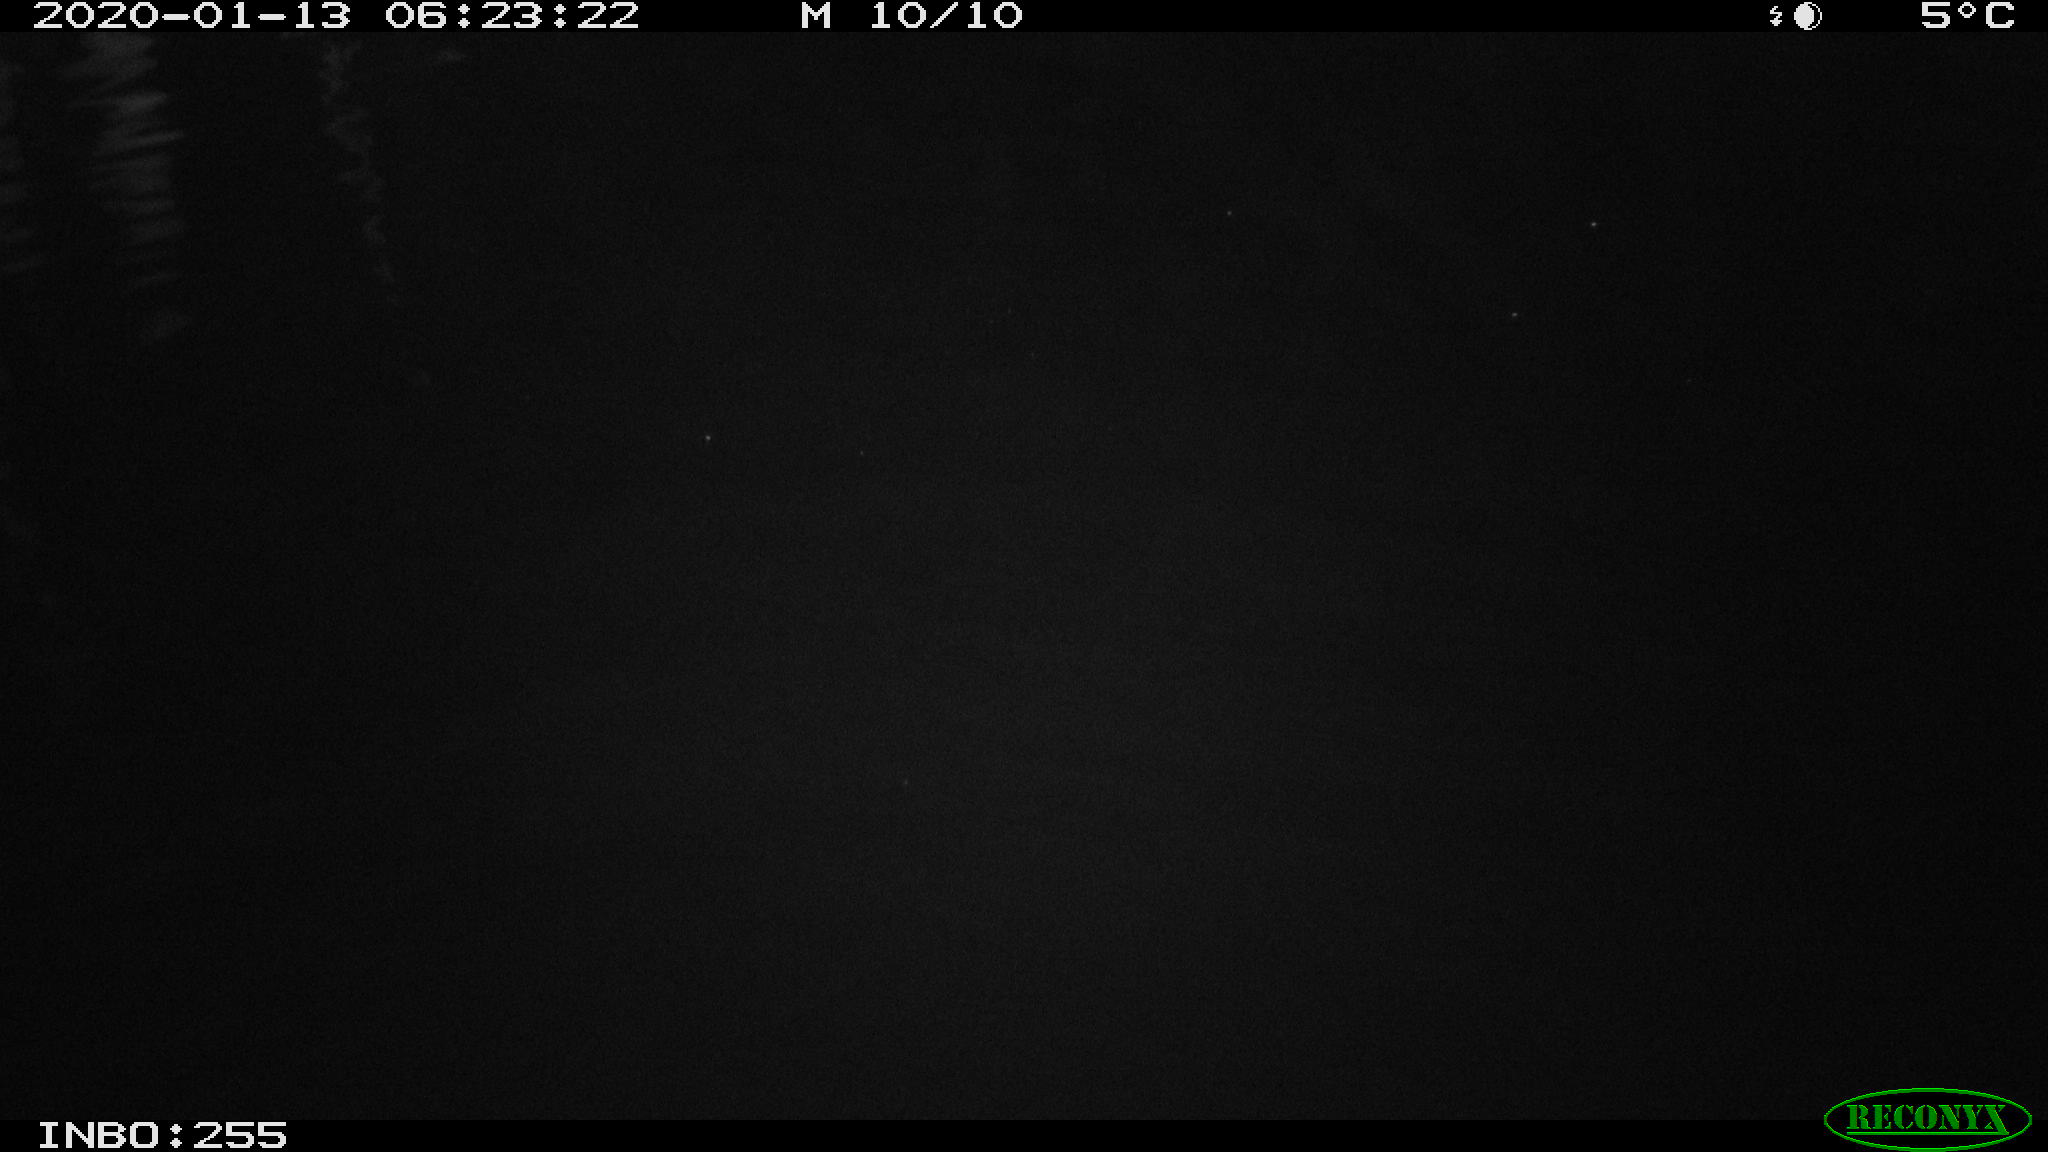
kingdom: Animalia
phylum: Chordata
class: Aves
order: Anseriformes
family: Anatidae
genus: Anas
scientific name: Anas platyrhynchos
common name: Mallard
